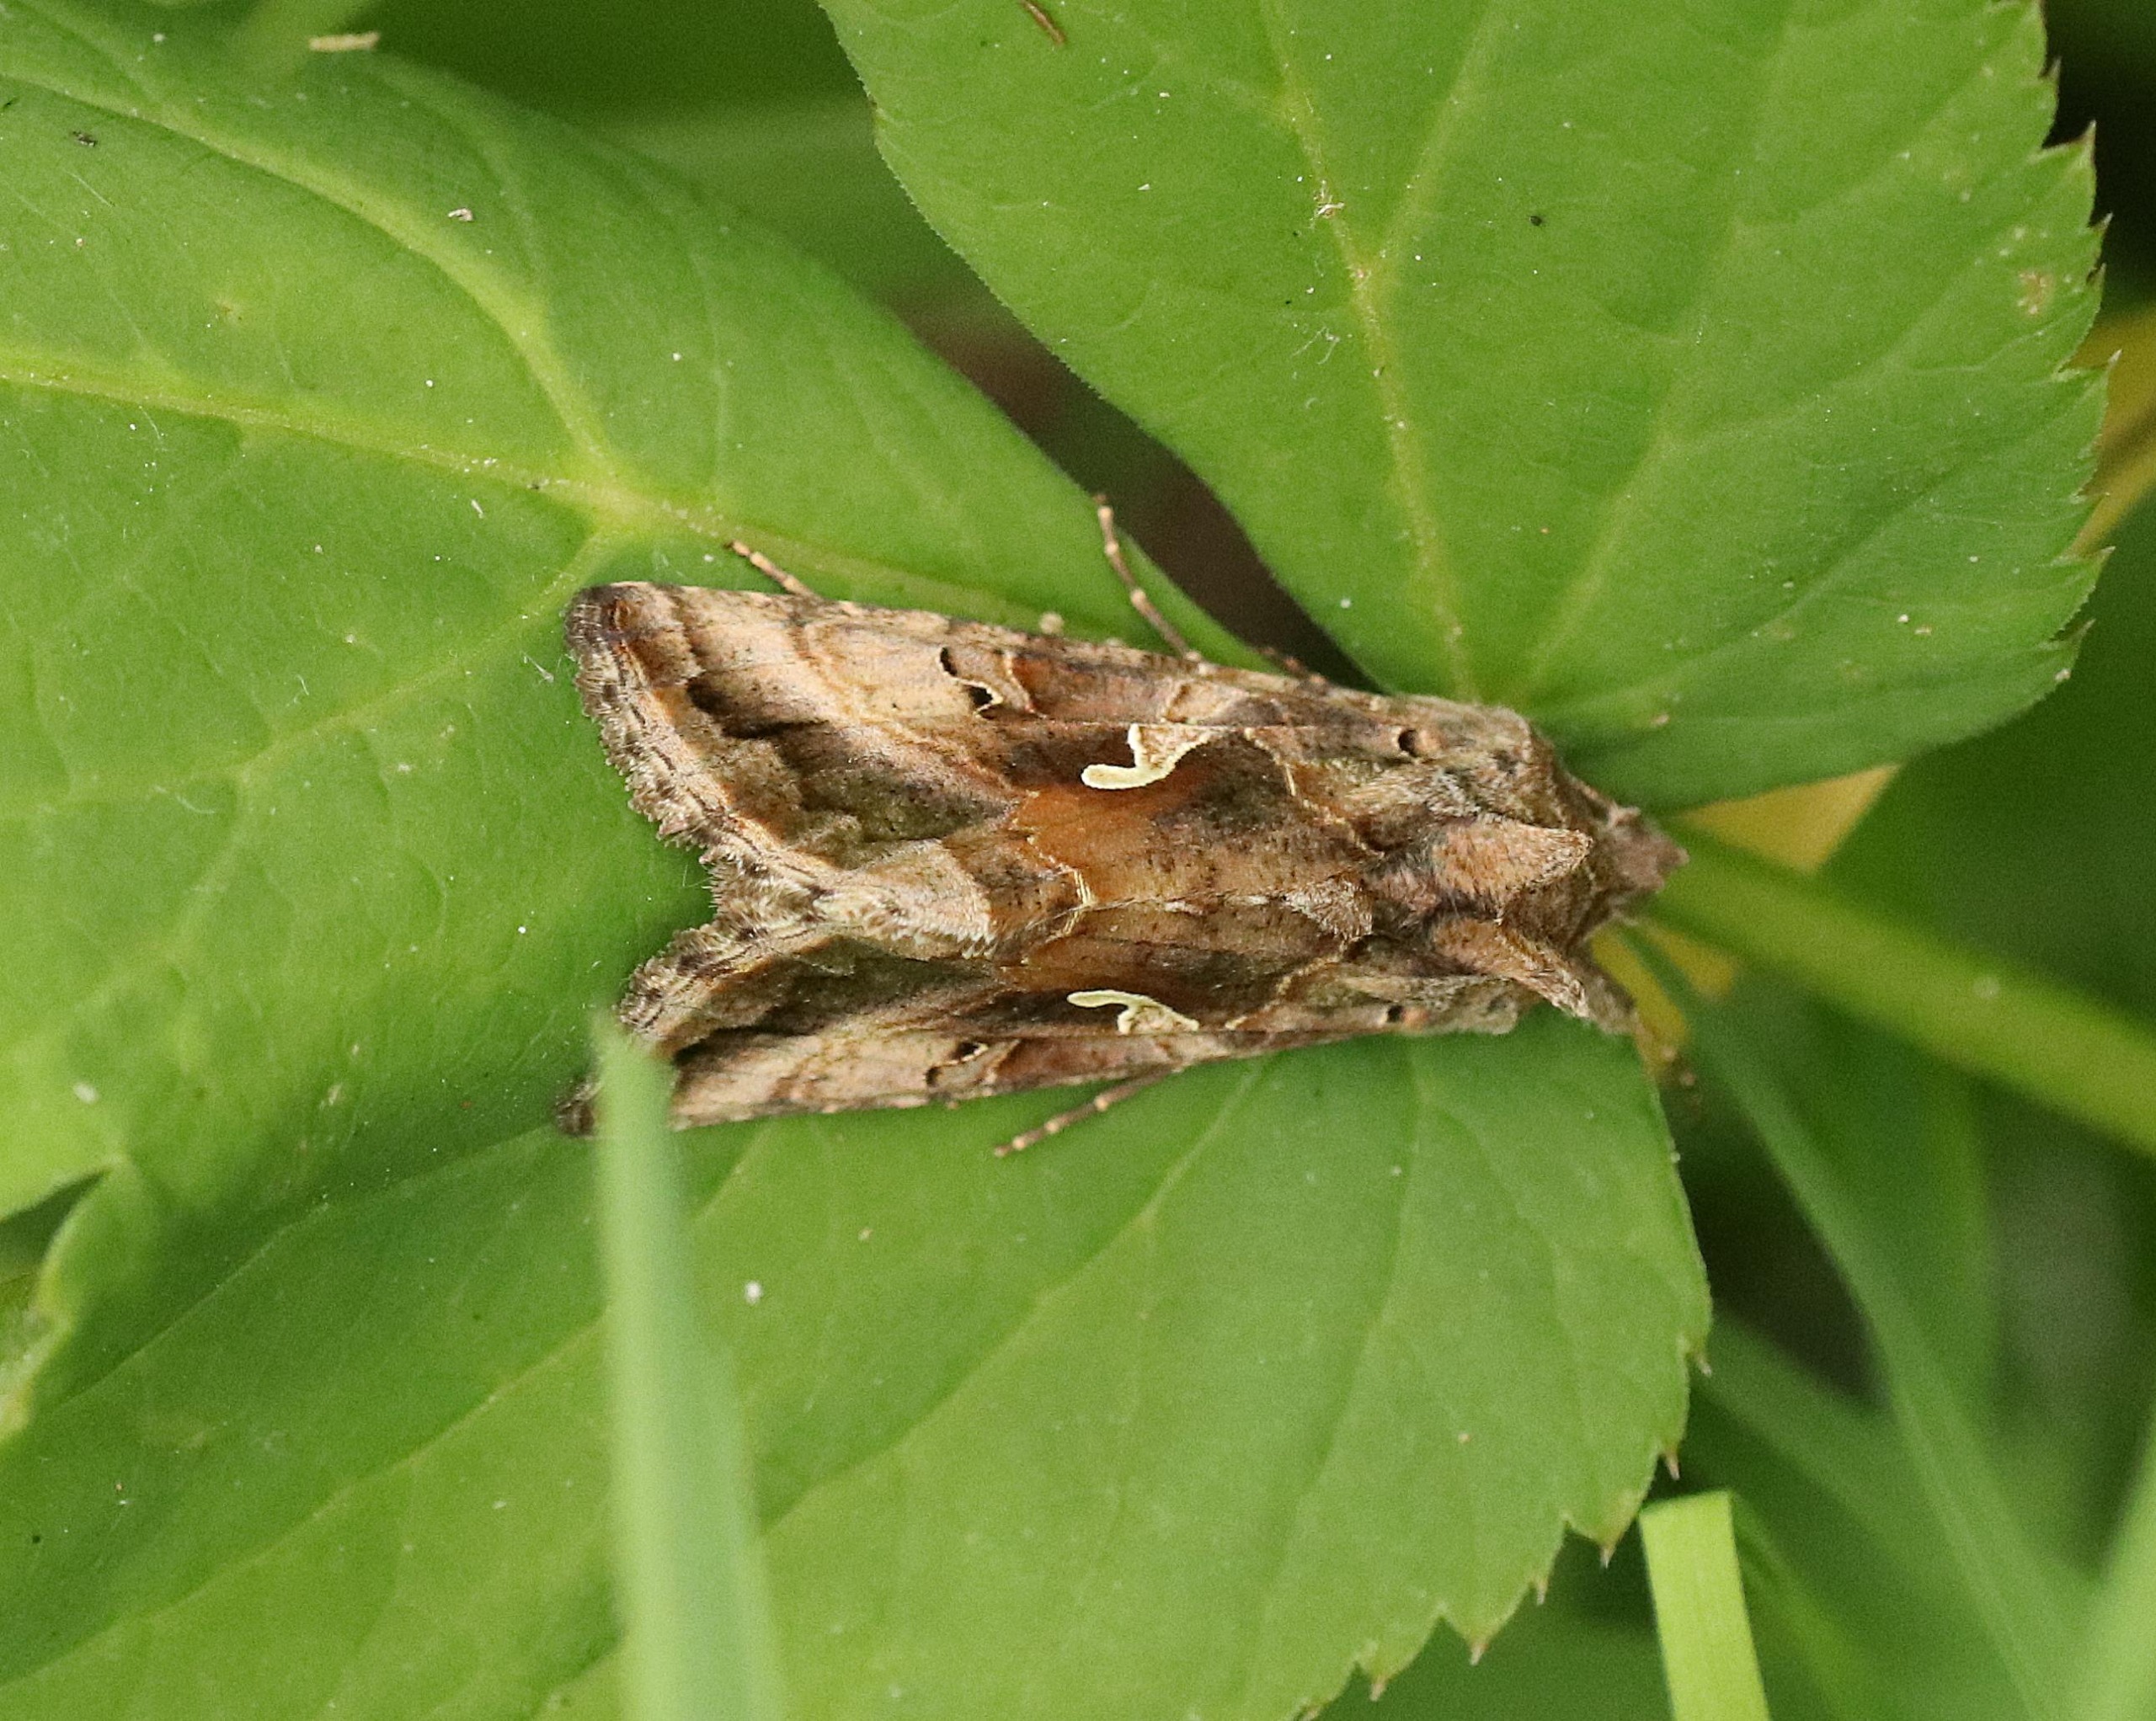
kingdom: Animalia
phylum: Arthropoda
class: Insecta
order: Lepidoptera
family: Noctuidae
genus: Autographa
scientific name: Autographa gamma
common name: Gammaugle
